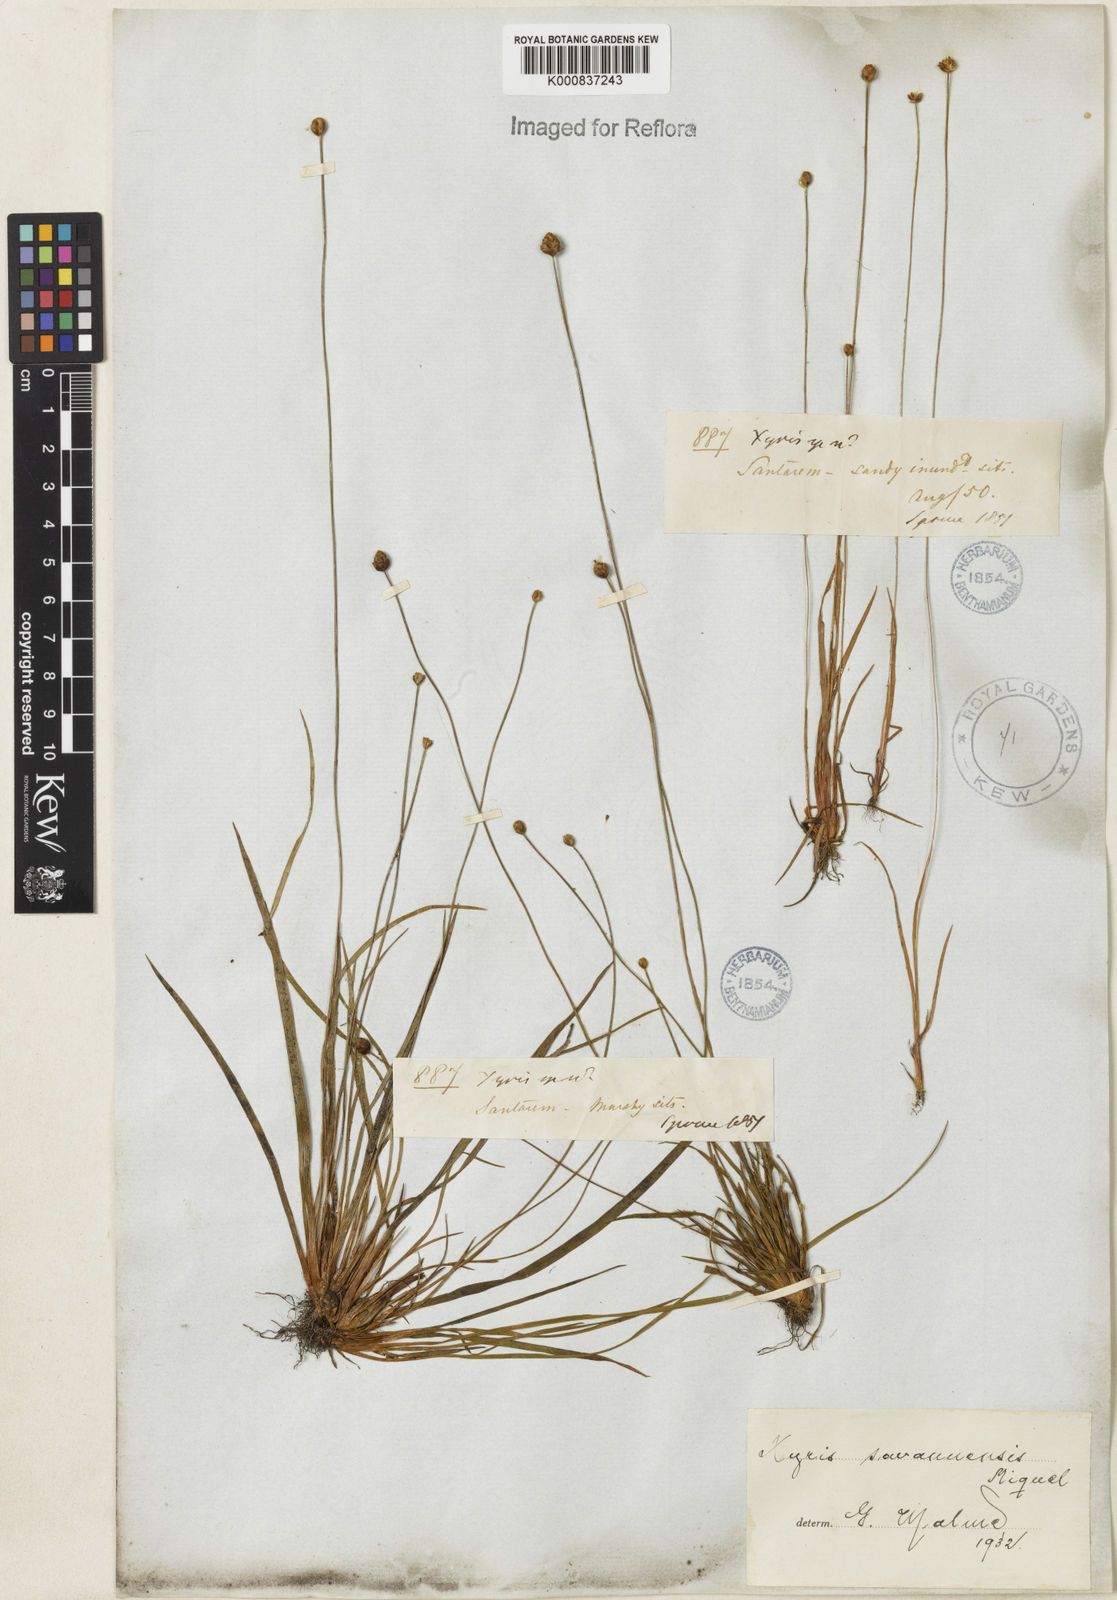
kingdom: Plantae
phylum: Tracheophyta
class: Liliopsida
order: Poales
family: Xyridaceae
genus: Xyris
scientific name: Xyris savanensis
